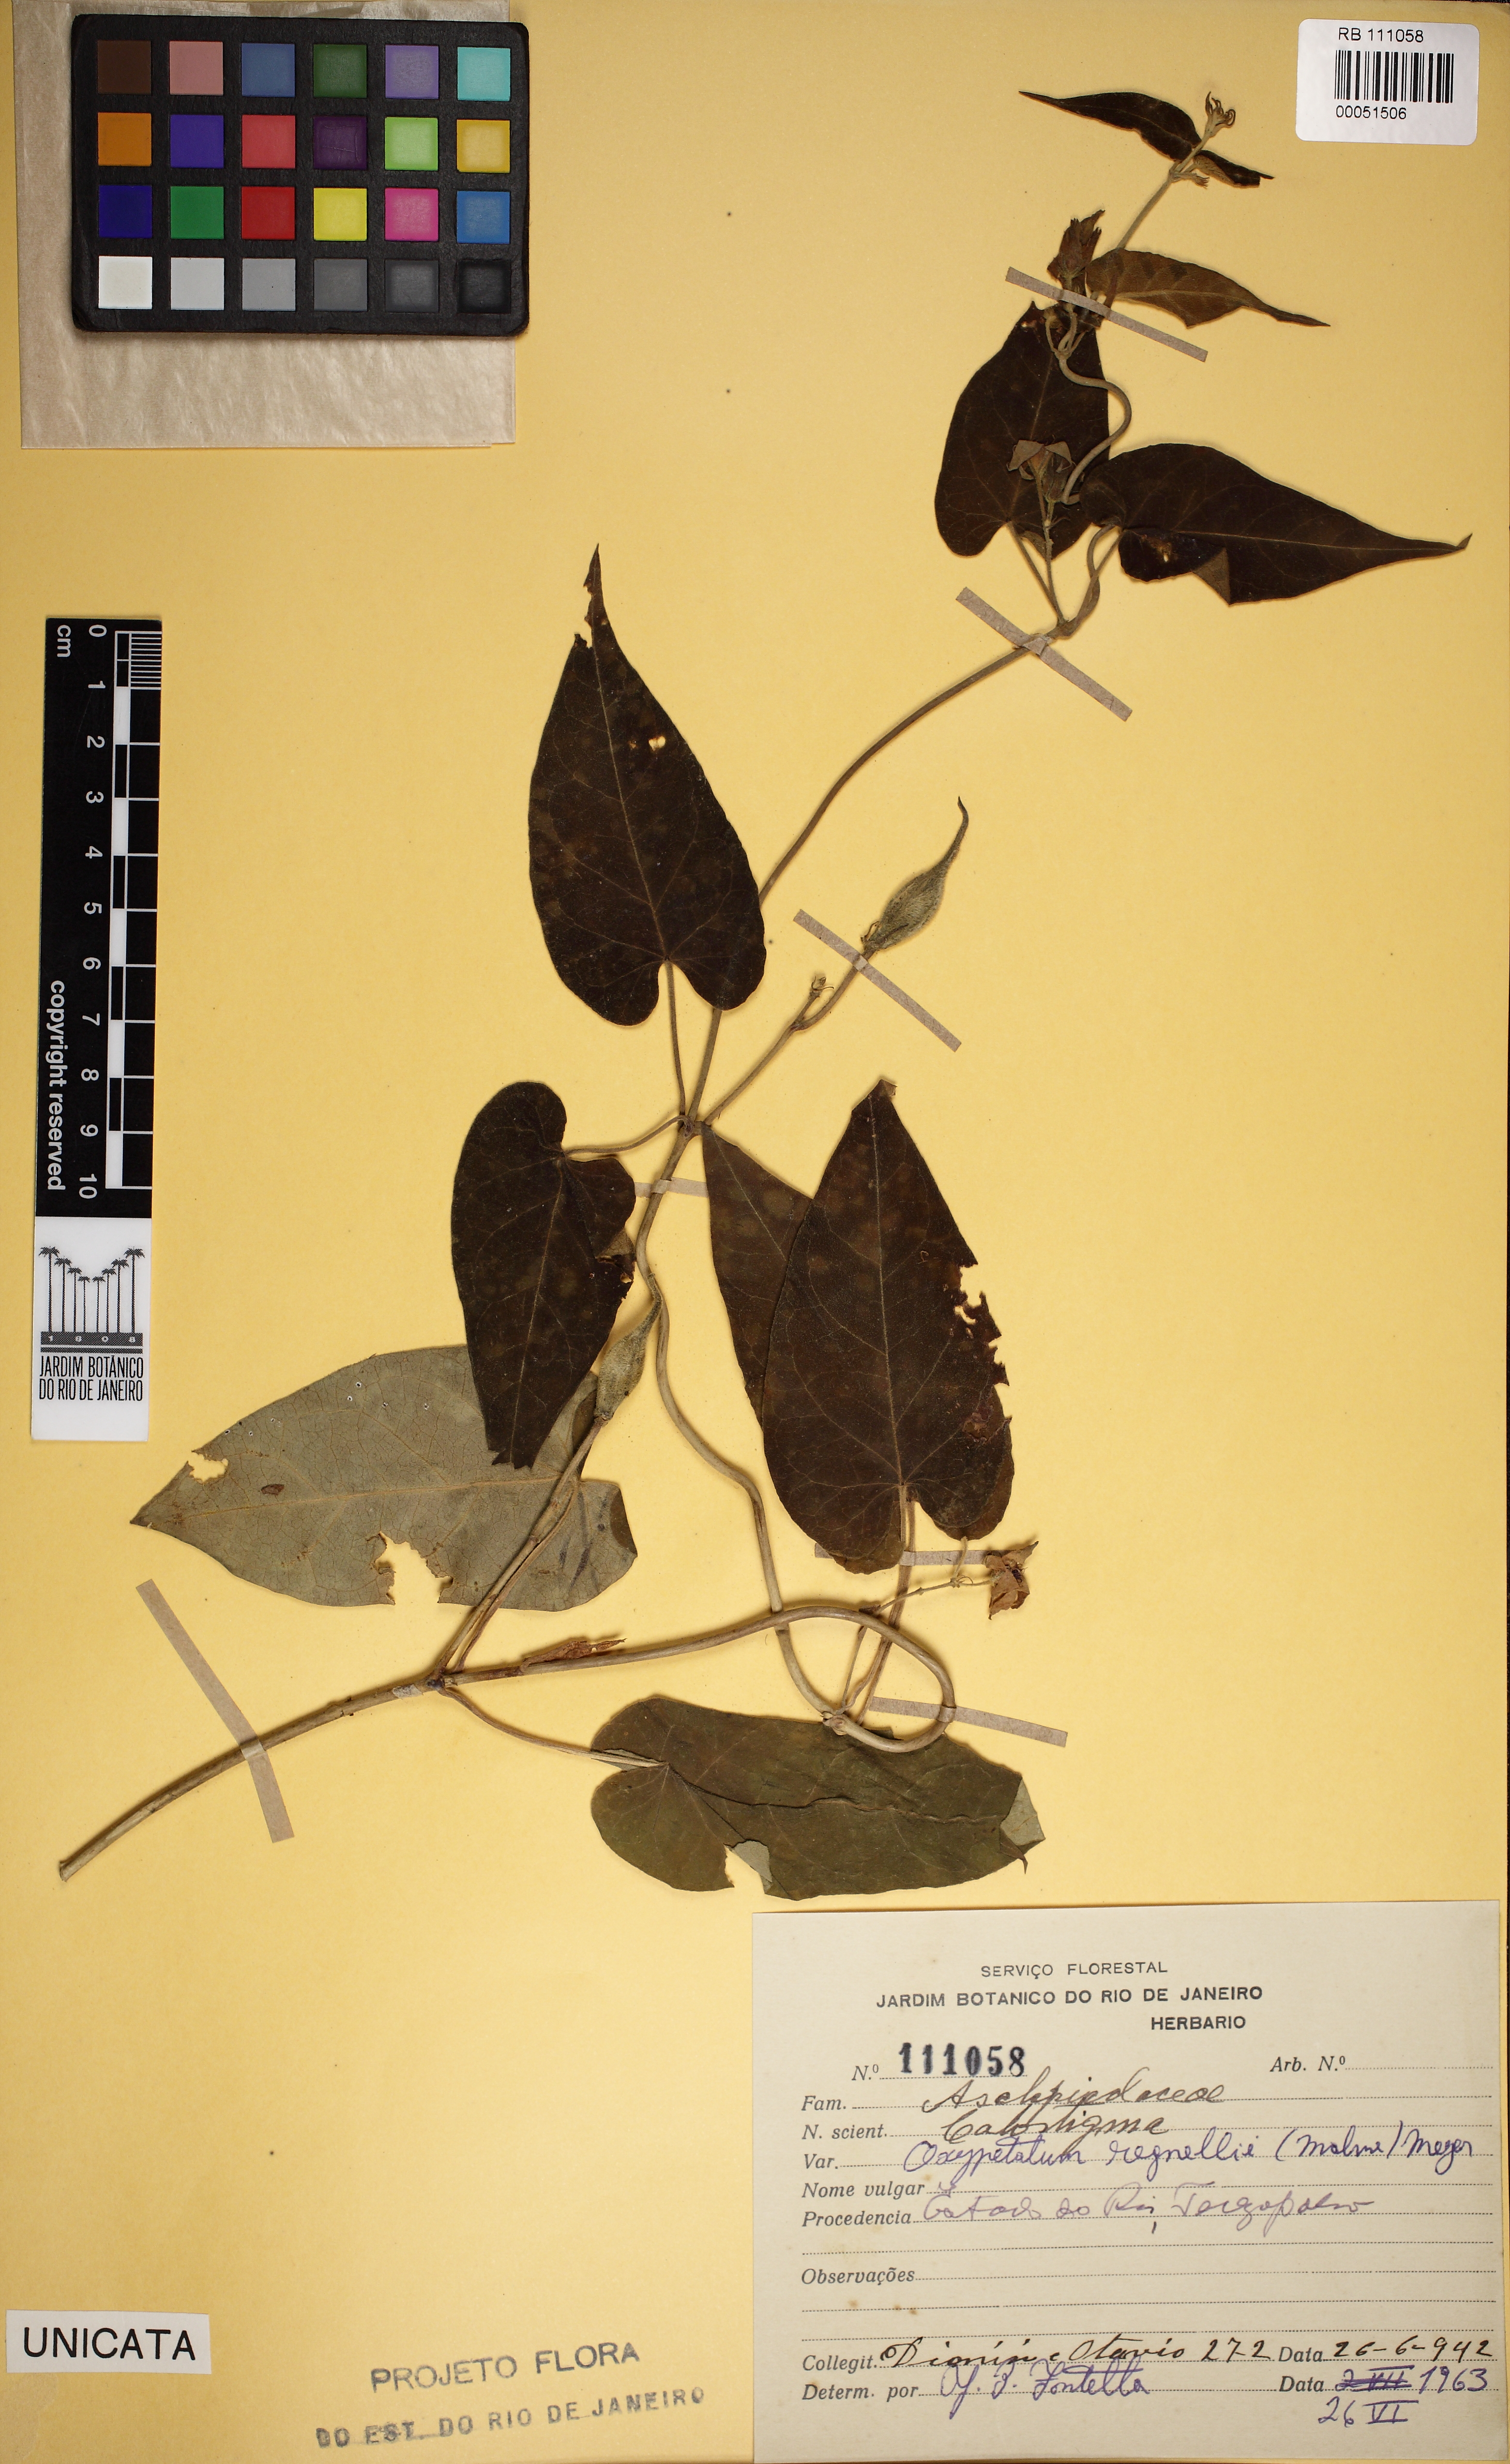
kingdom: Plantae
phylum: Tracheophyta
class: Magnoliopsida
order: Gentianales
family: Apocynaceae
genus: Oxypetalum
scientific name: Oxypetalum regnellii
